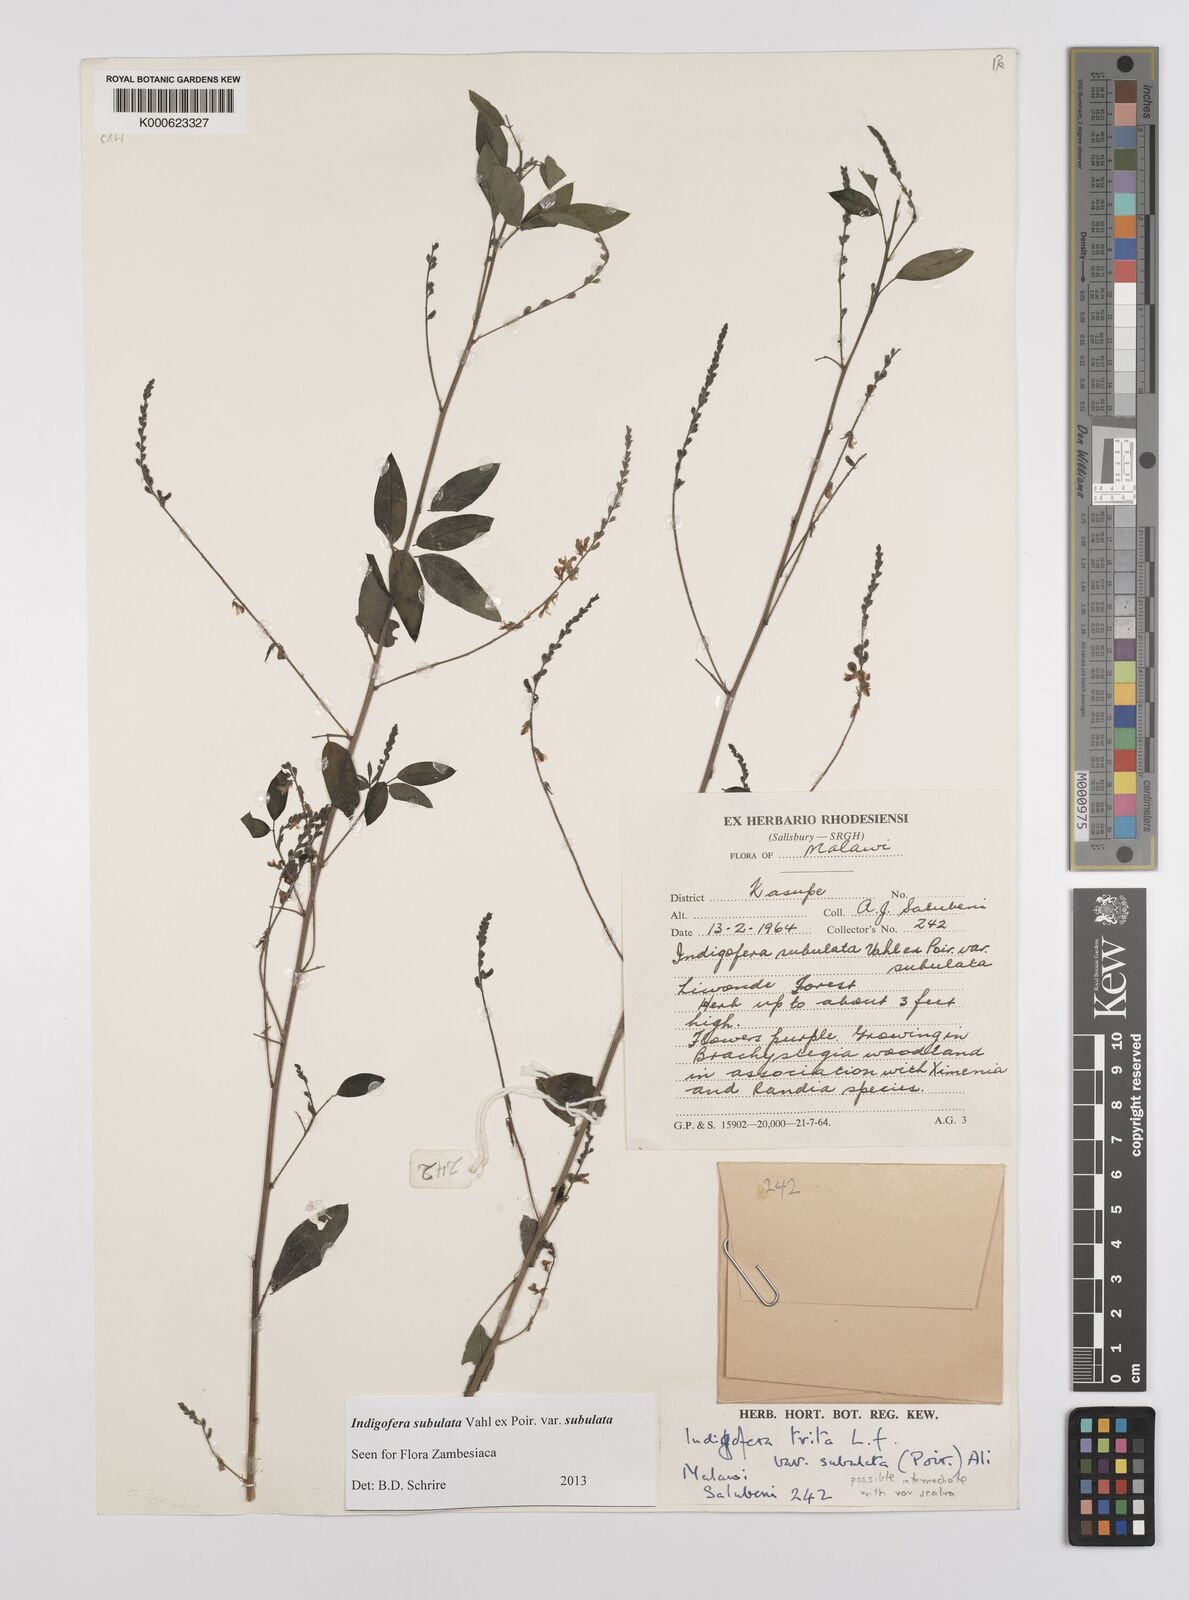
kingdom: Plantae
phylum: Tracheophyta
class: Magnoliopsida
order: Fabales
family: Fabaceae
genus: Indigofera
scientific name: Indigofera subulata
